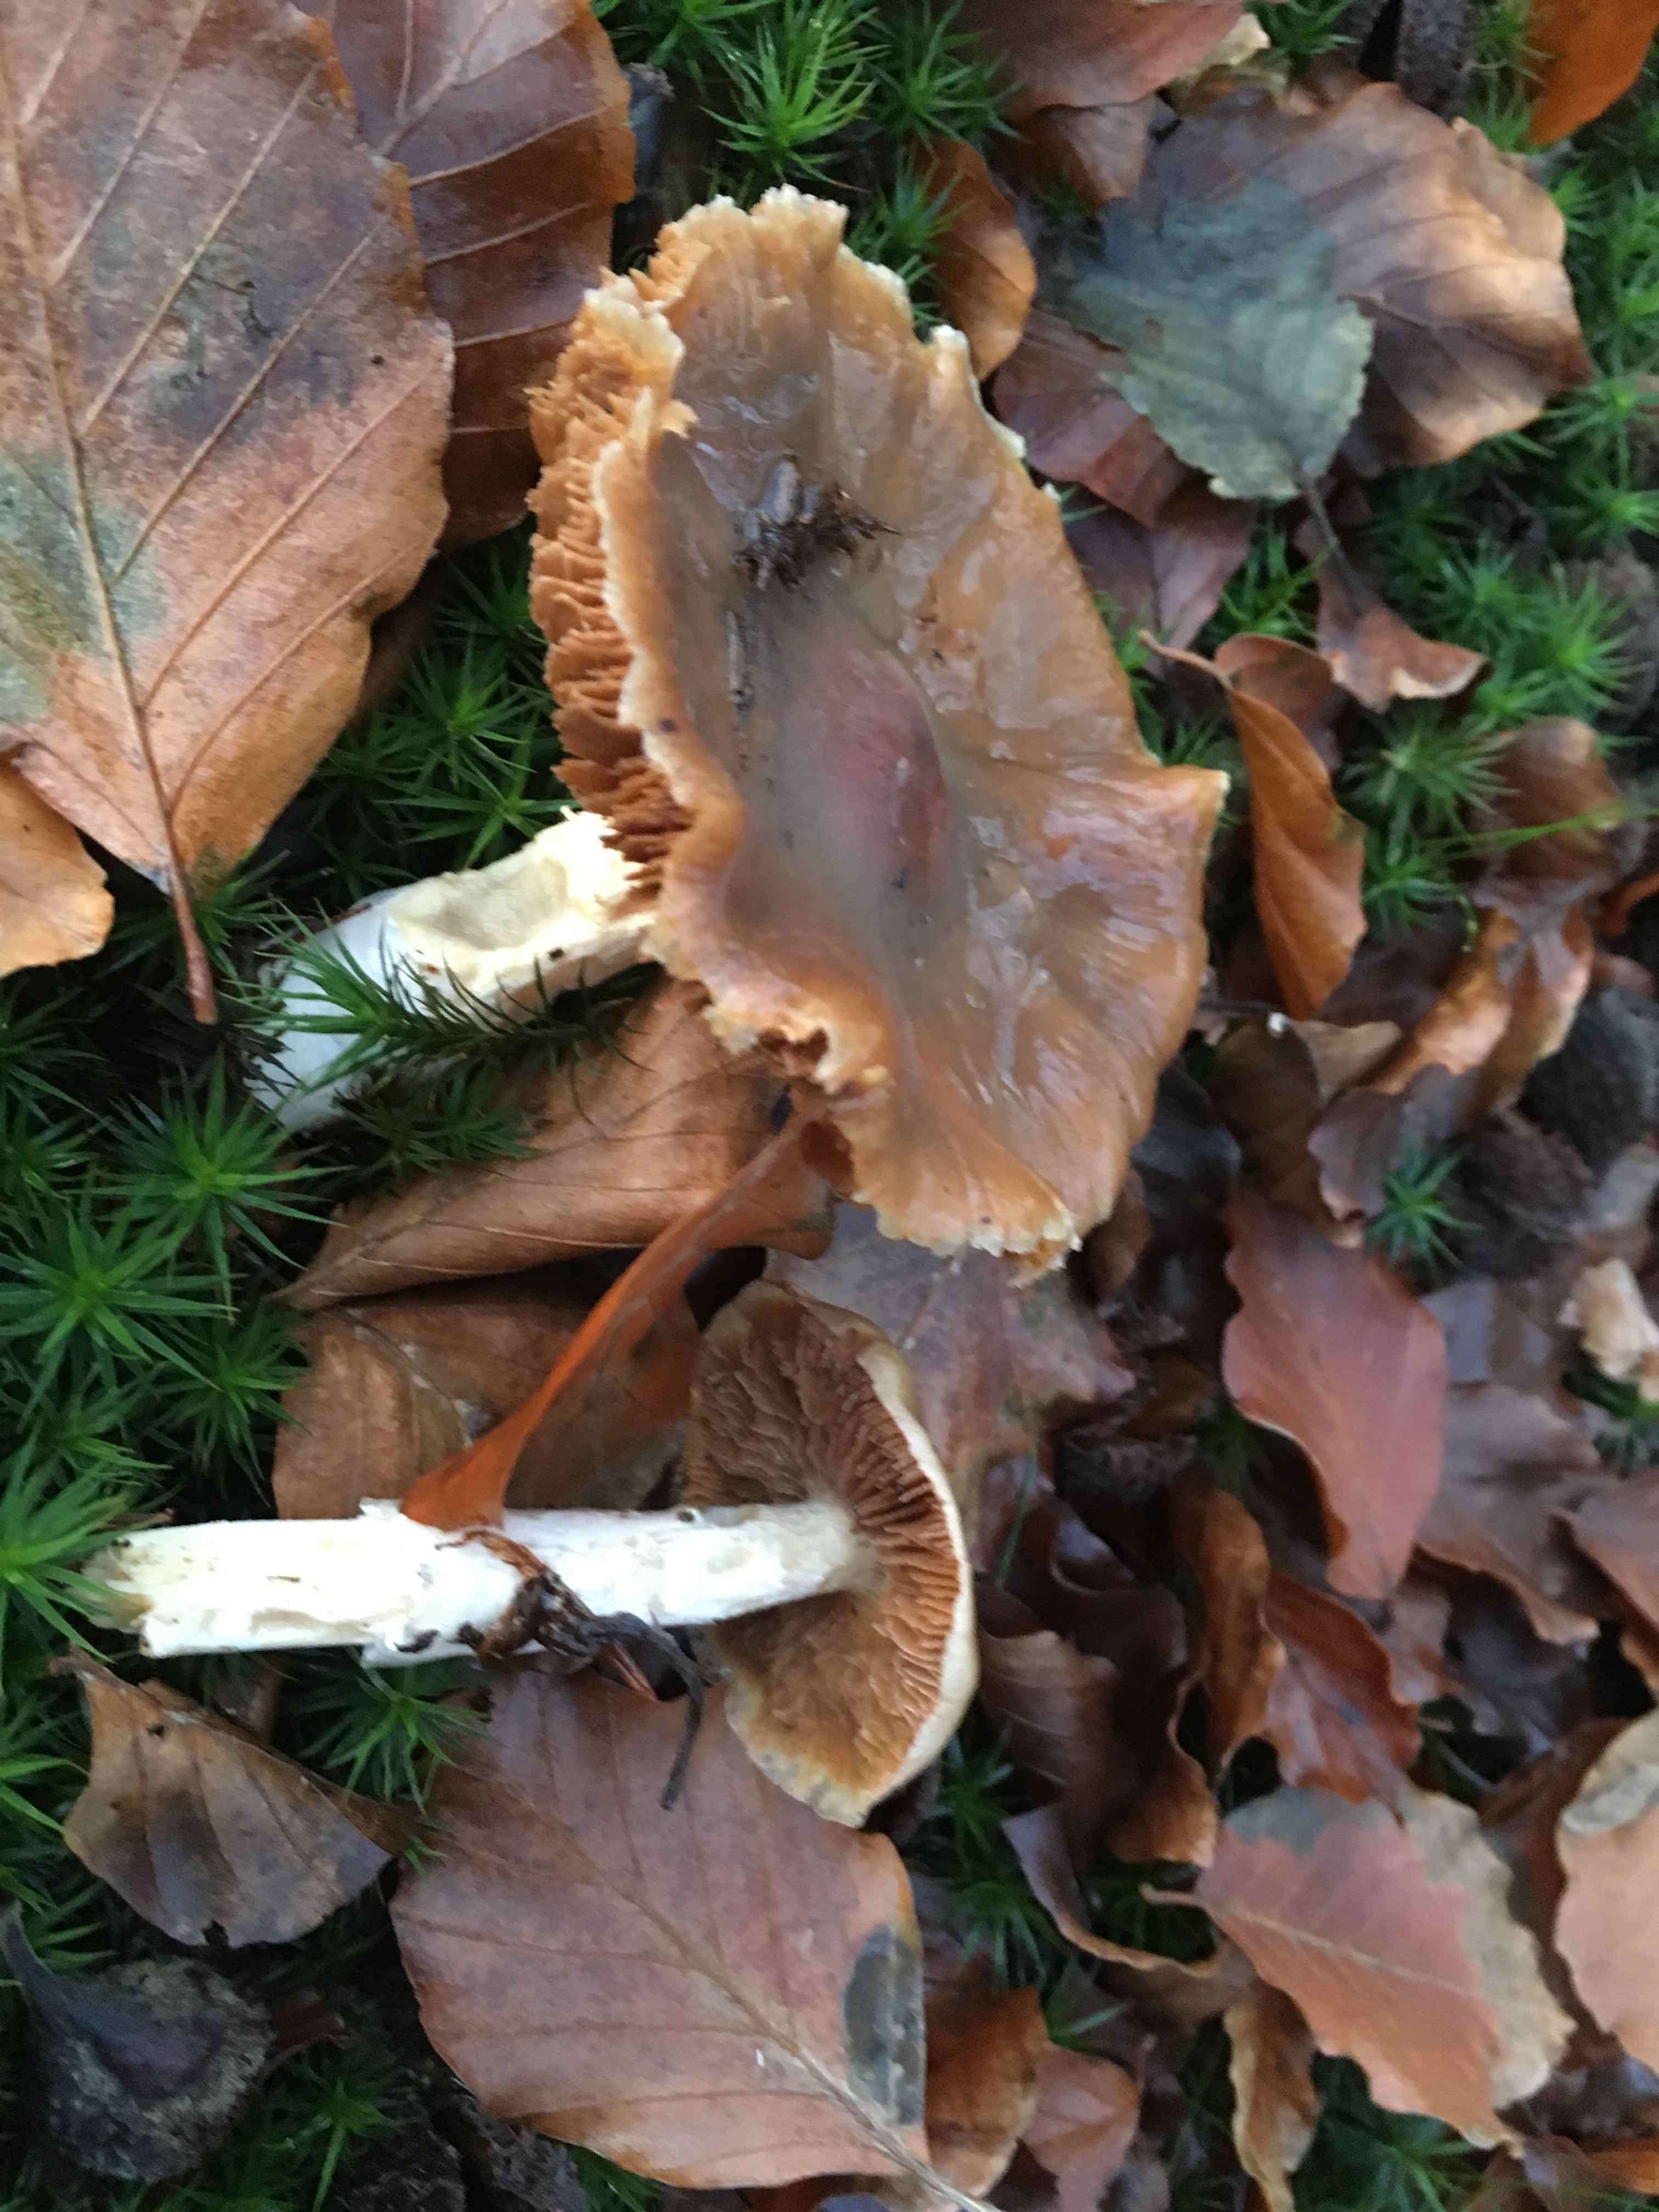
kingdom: Fungi
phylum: Basidiomycota
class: Agaricomycetes
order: Agaricales
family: Cortinariaceae
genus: Cortinarius
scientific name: Cortinarius elatior
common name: høj slørhat
